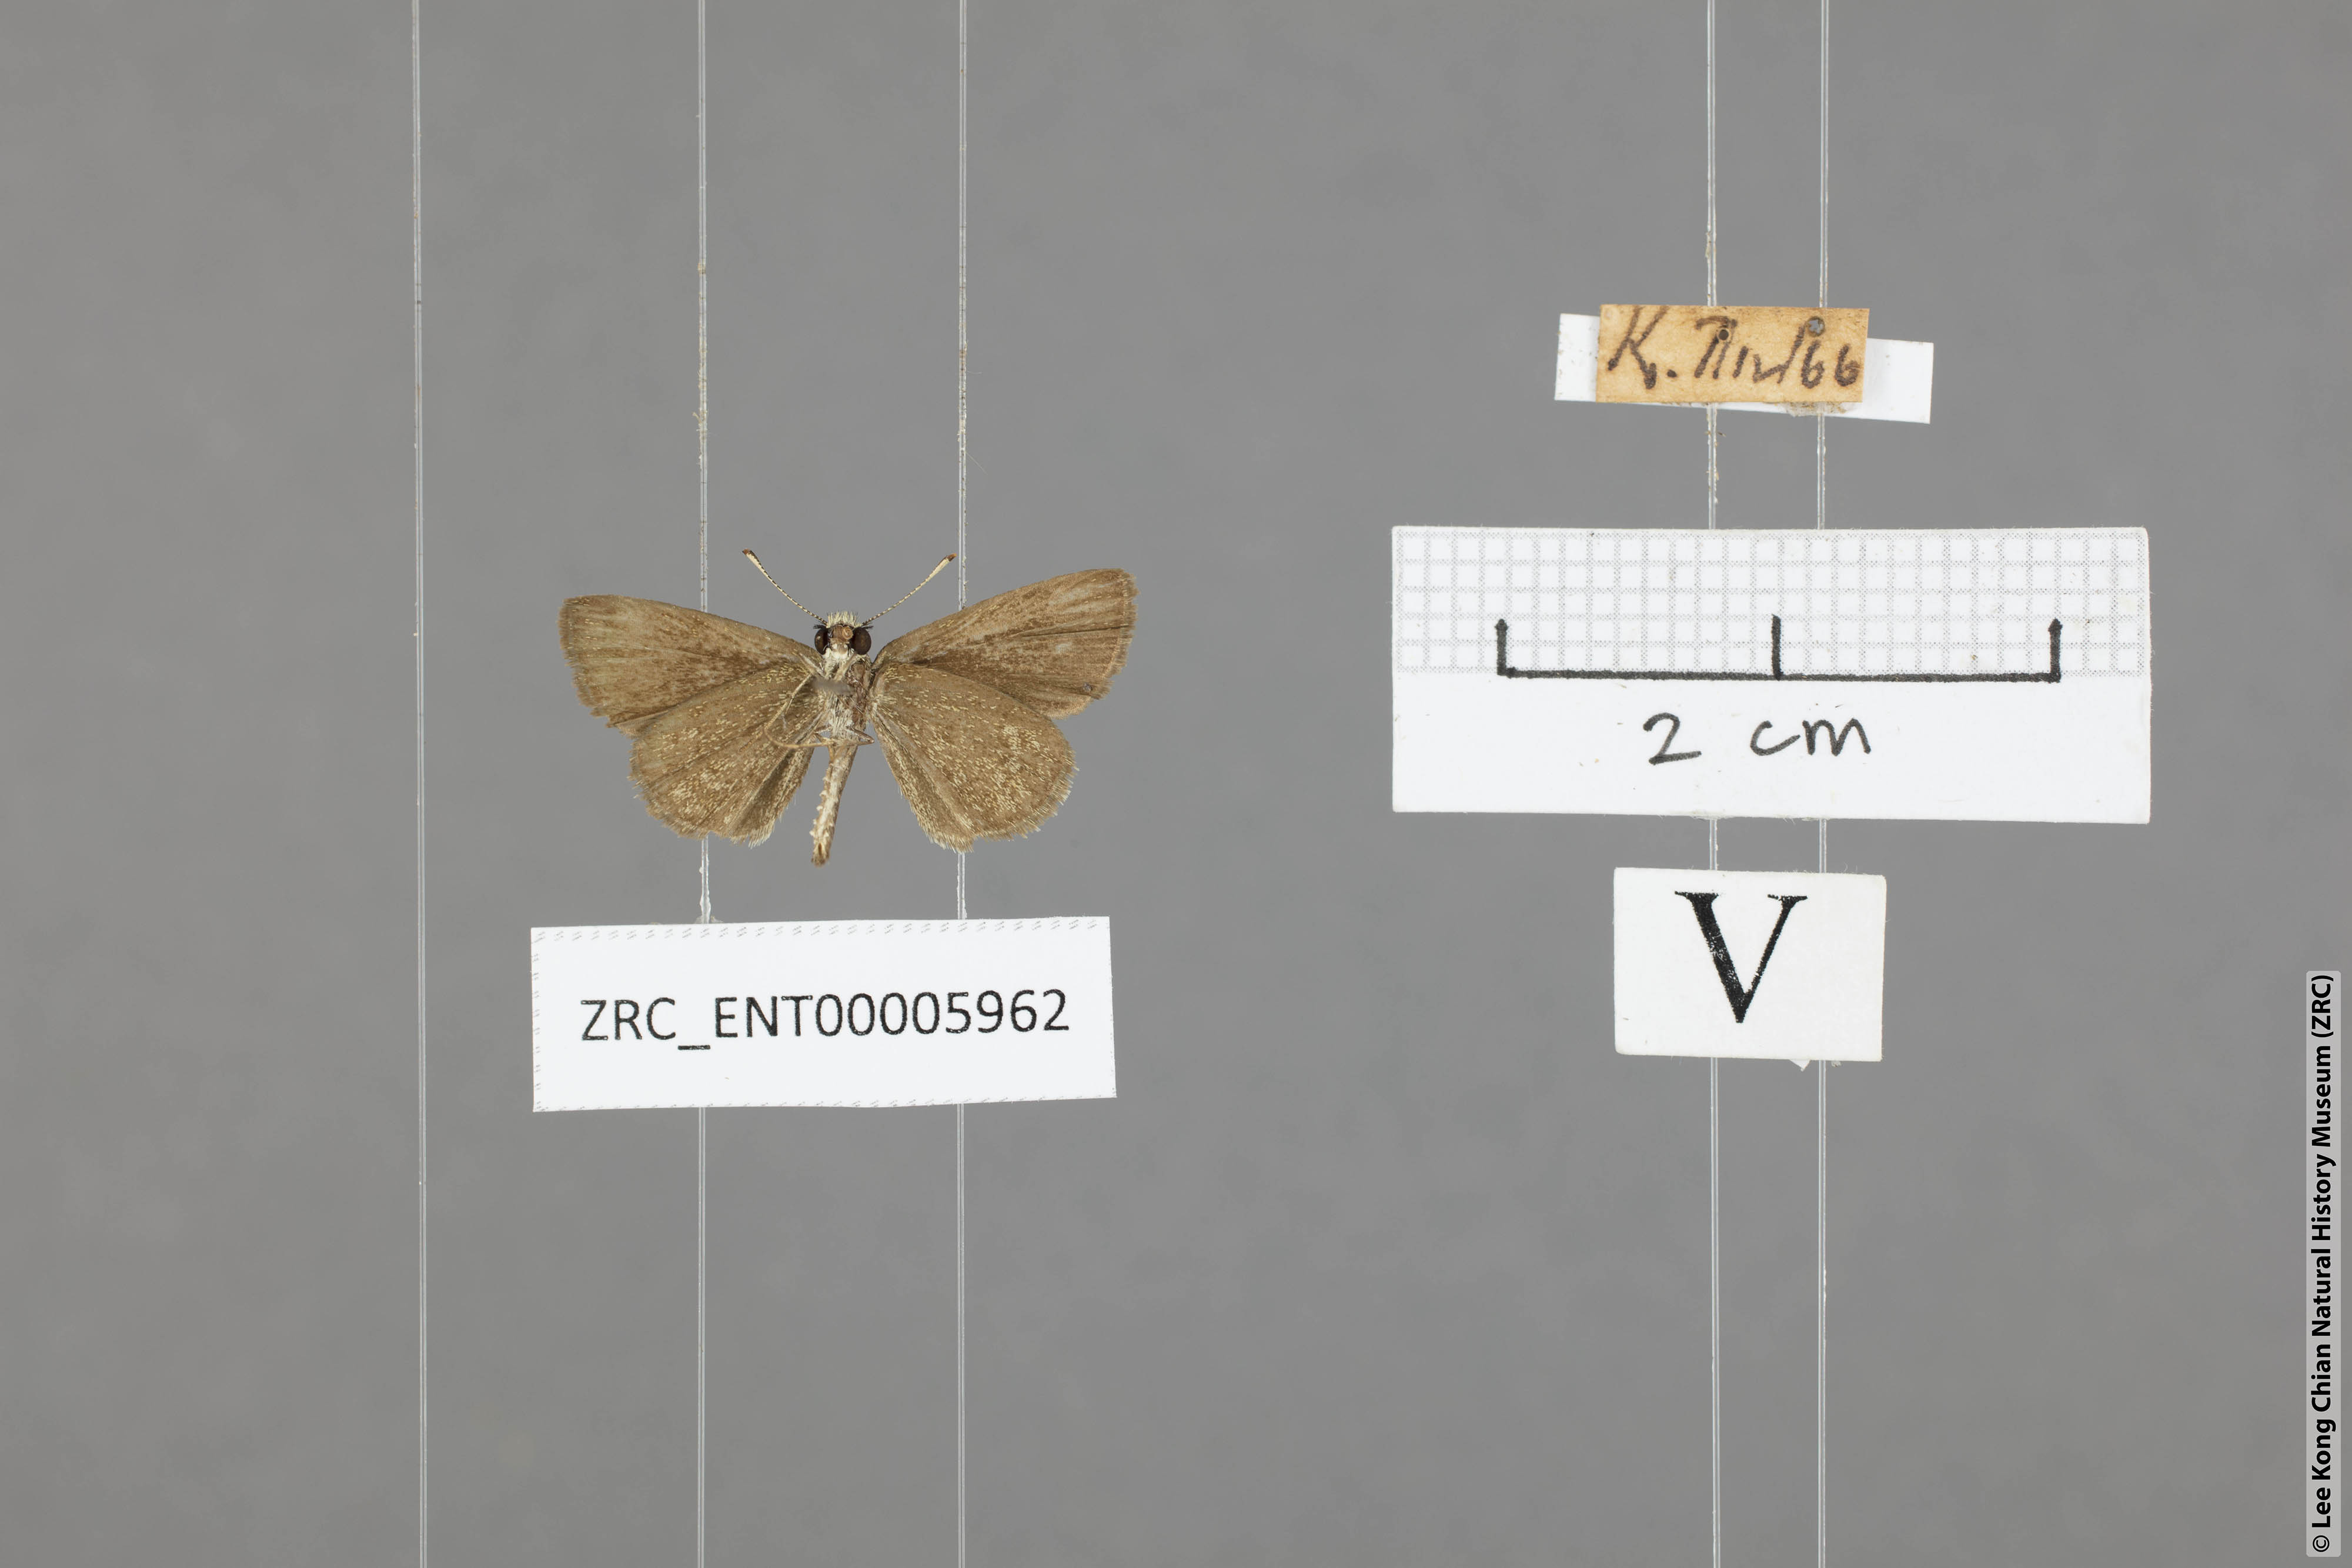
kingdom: Animalia
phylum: Arthropoda
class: Insecta
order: Lepidoptera
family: Hesperiidae
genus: Aeromachus
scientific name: Aeromachus pygmaeus
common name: Pygmy scrub hopper
